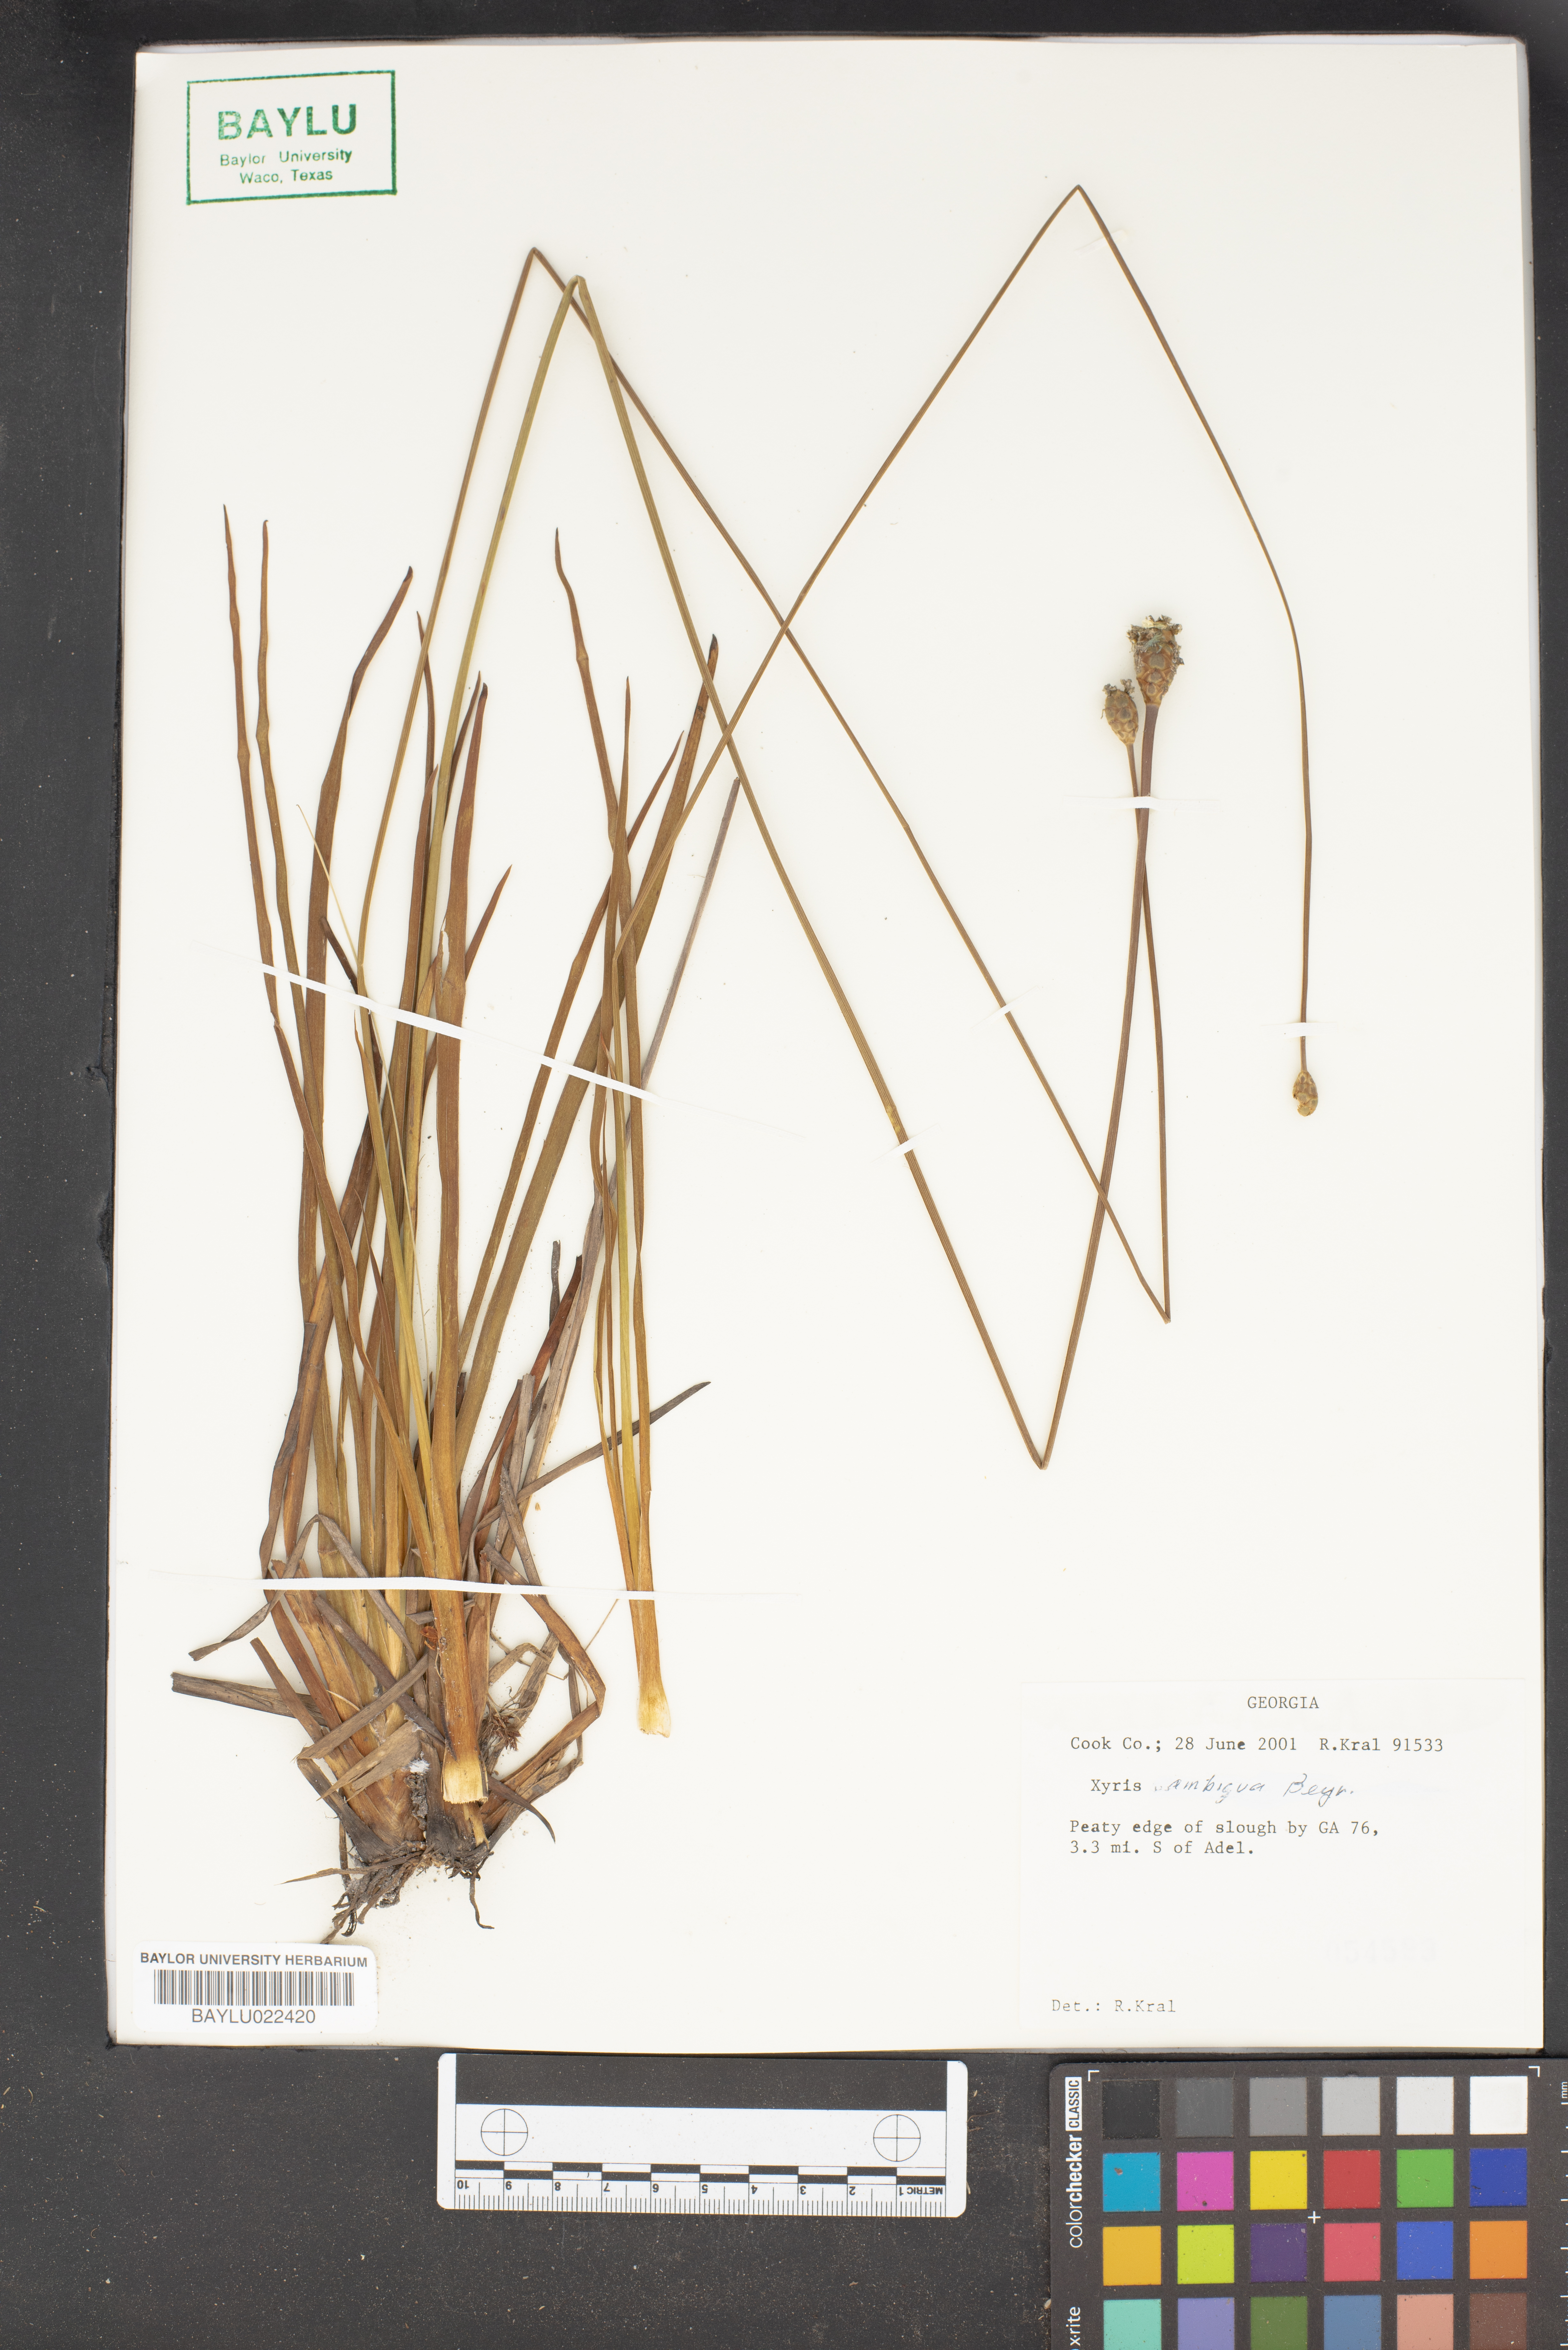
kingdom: Plantae
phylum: Tracheophyta
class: Liliopsida
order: Poales
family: Xyridaceae
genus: Xyris
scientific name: Xyris ambigua
